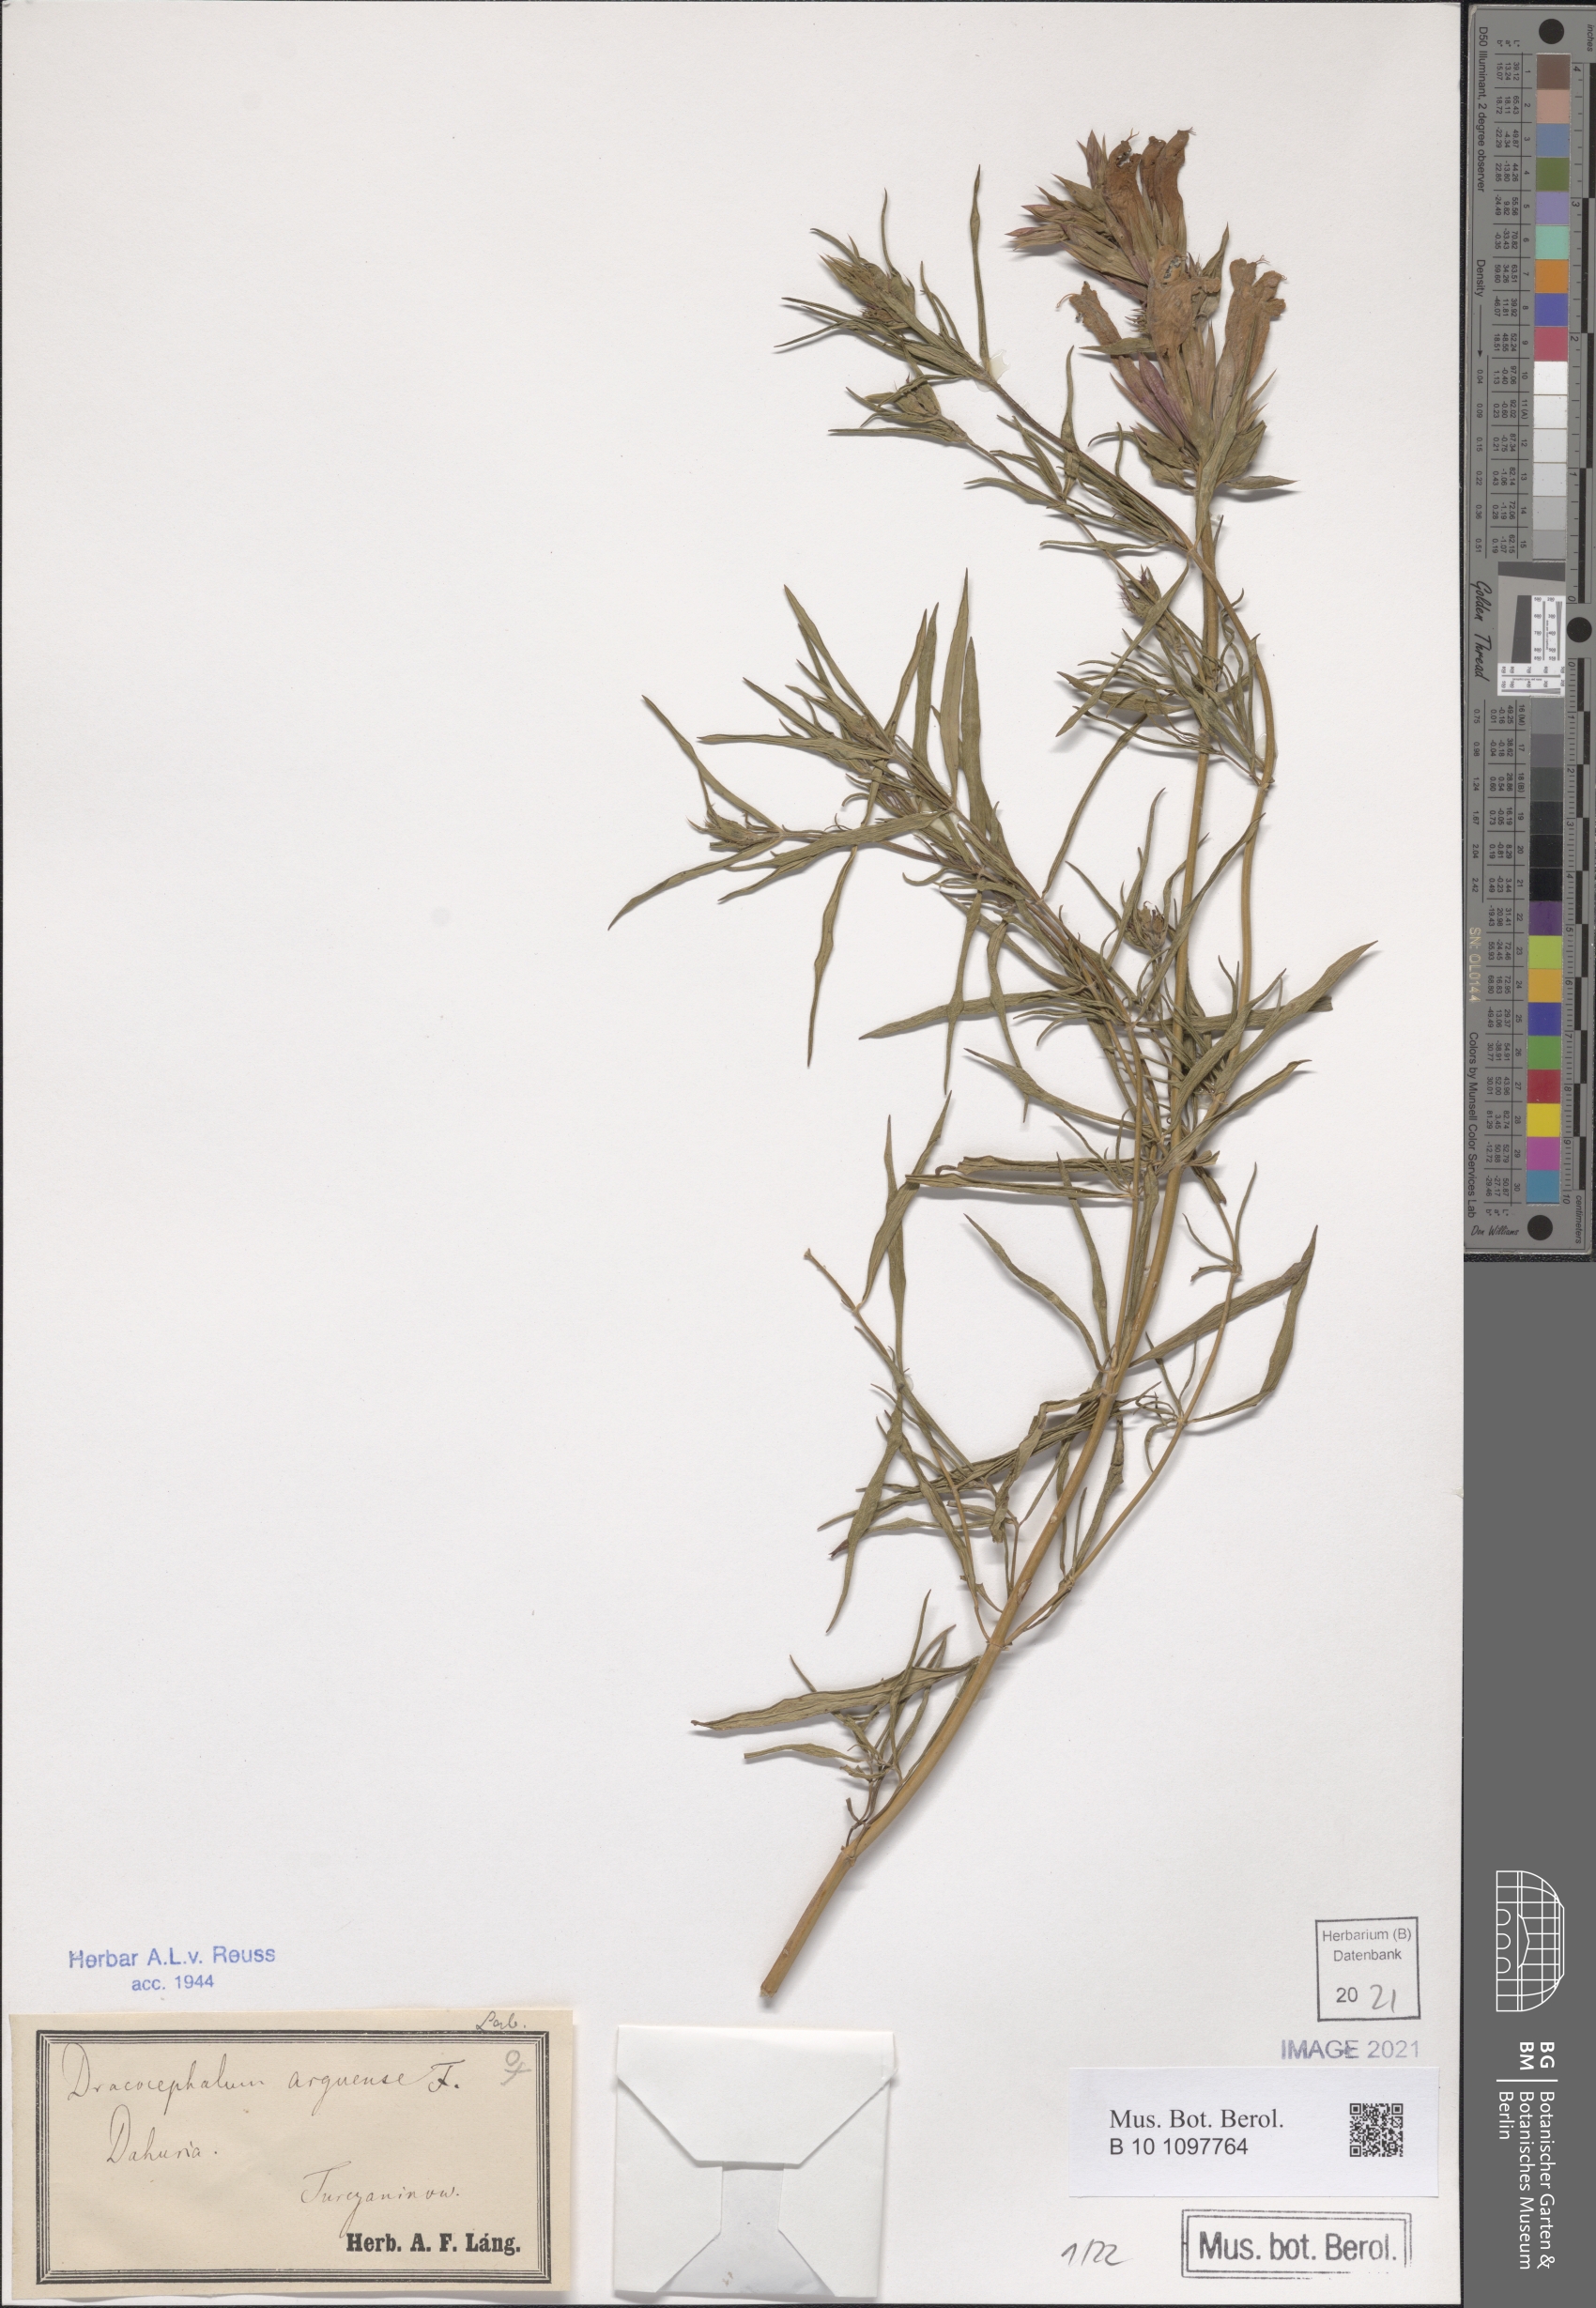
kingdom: Plantae
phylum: Tracheophyta
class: Magnoliopsida
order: Lamiales
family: Lamiaceae
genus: Dracocephalum
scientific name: Dracocephalum argunense
